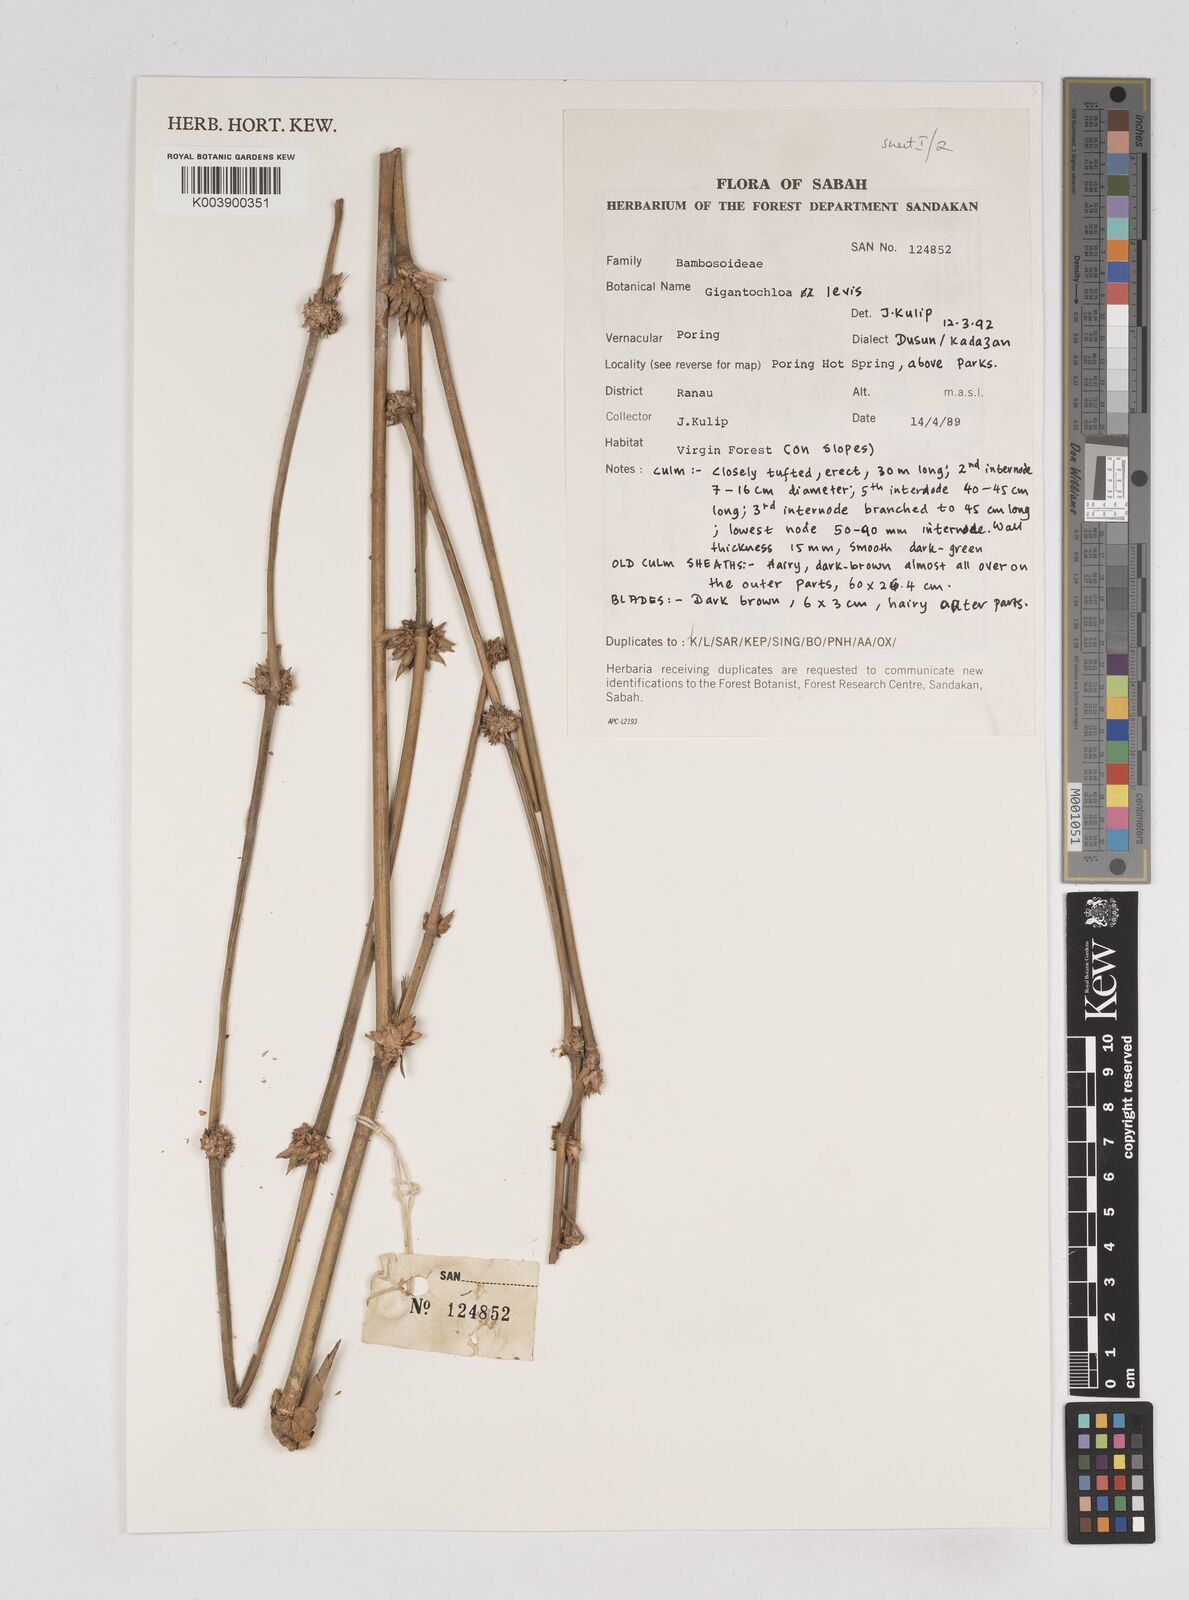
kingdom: Plantae
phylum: Tracheophyta
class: Liliopsida
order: Poales
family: Poaceae
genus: Gigantochloa
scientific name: Gigantochloa levis
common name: Smooth-shoot gigantochloa
